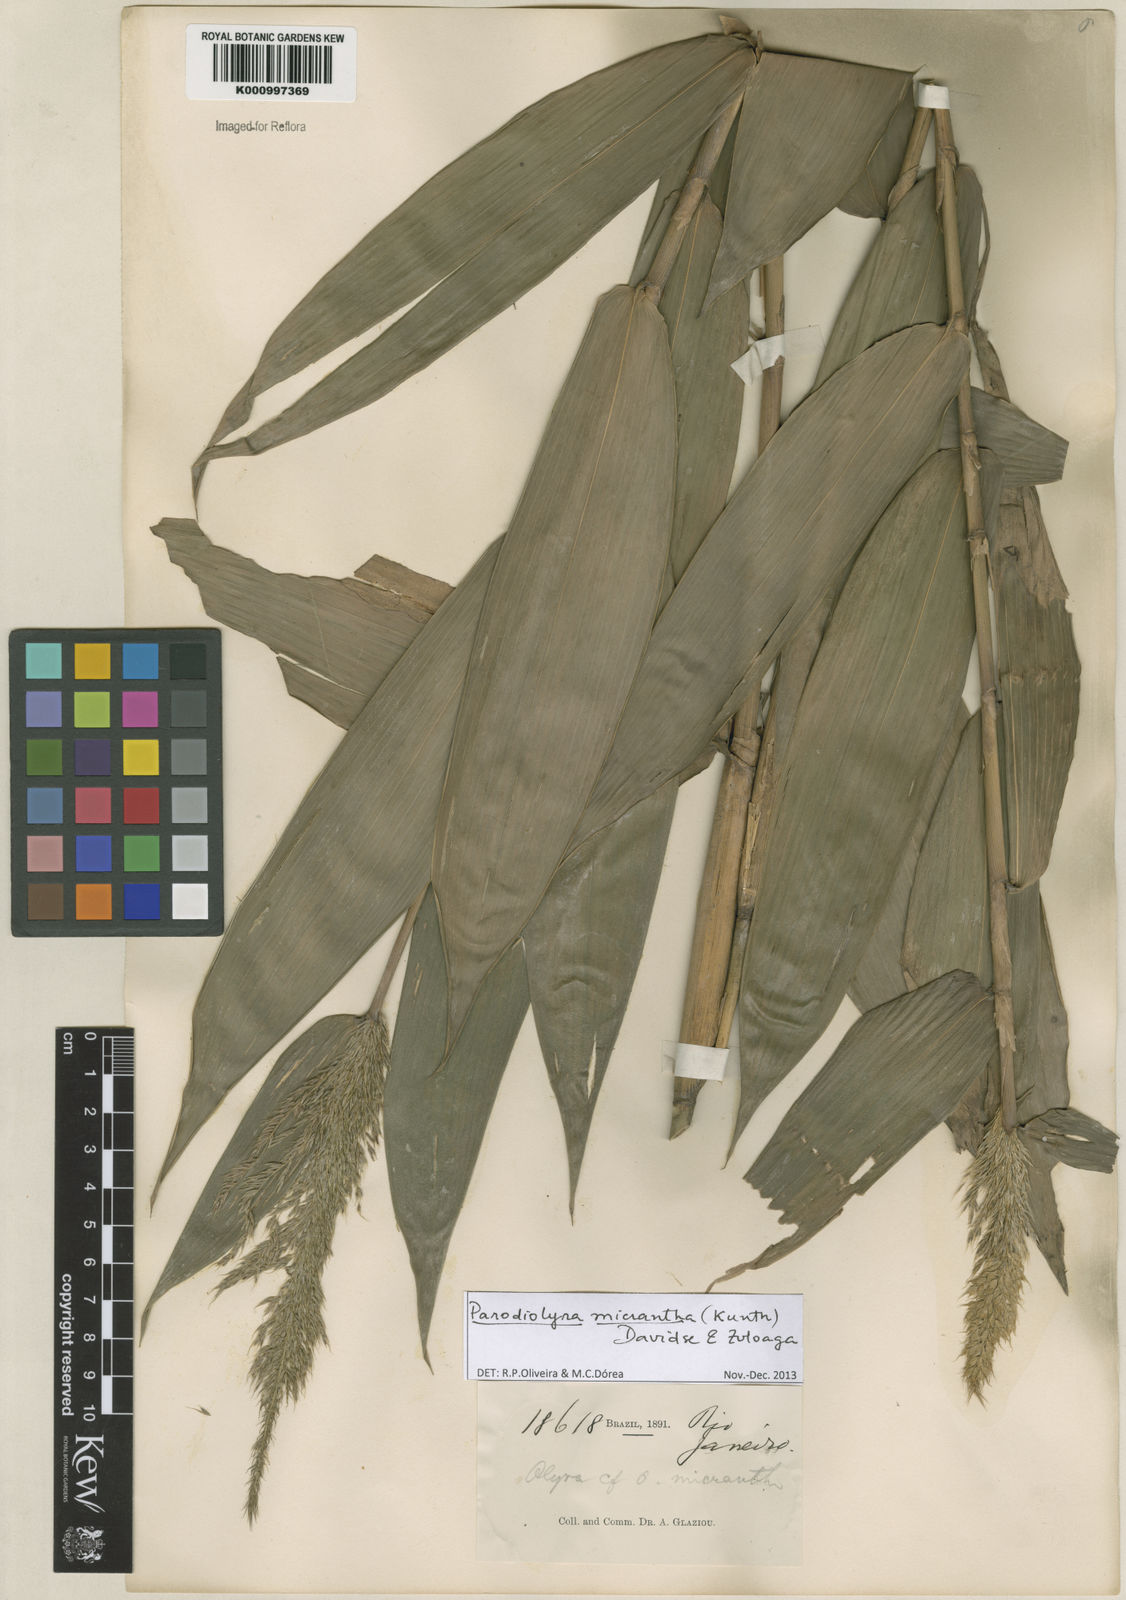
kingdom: Plantae
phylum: Tracheophyta
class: Liliopsida
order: Poales
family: Poaceae
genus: Taquara
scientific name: Taquara micrantha
